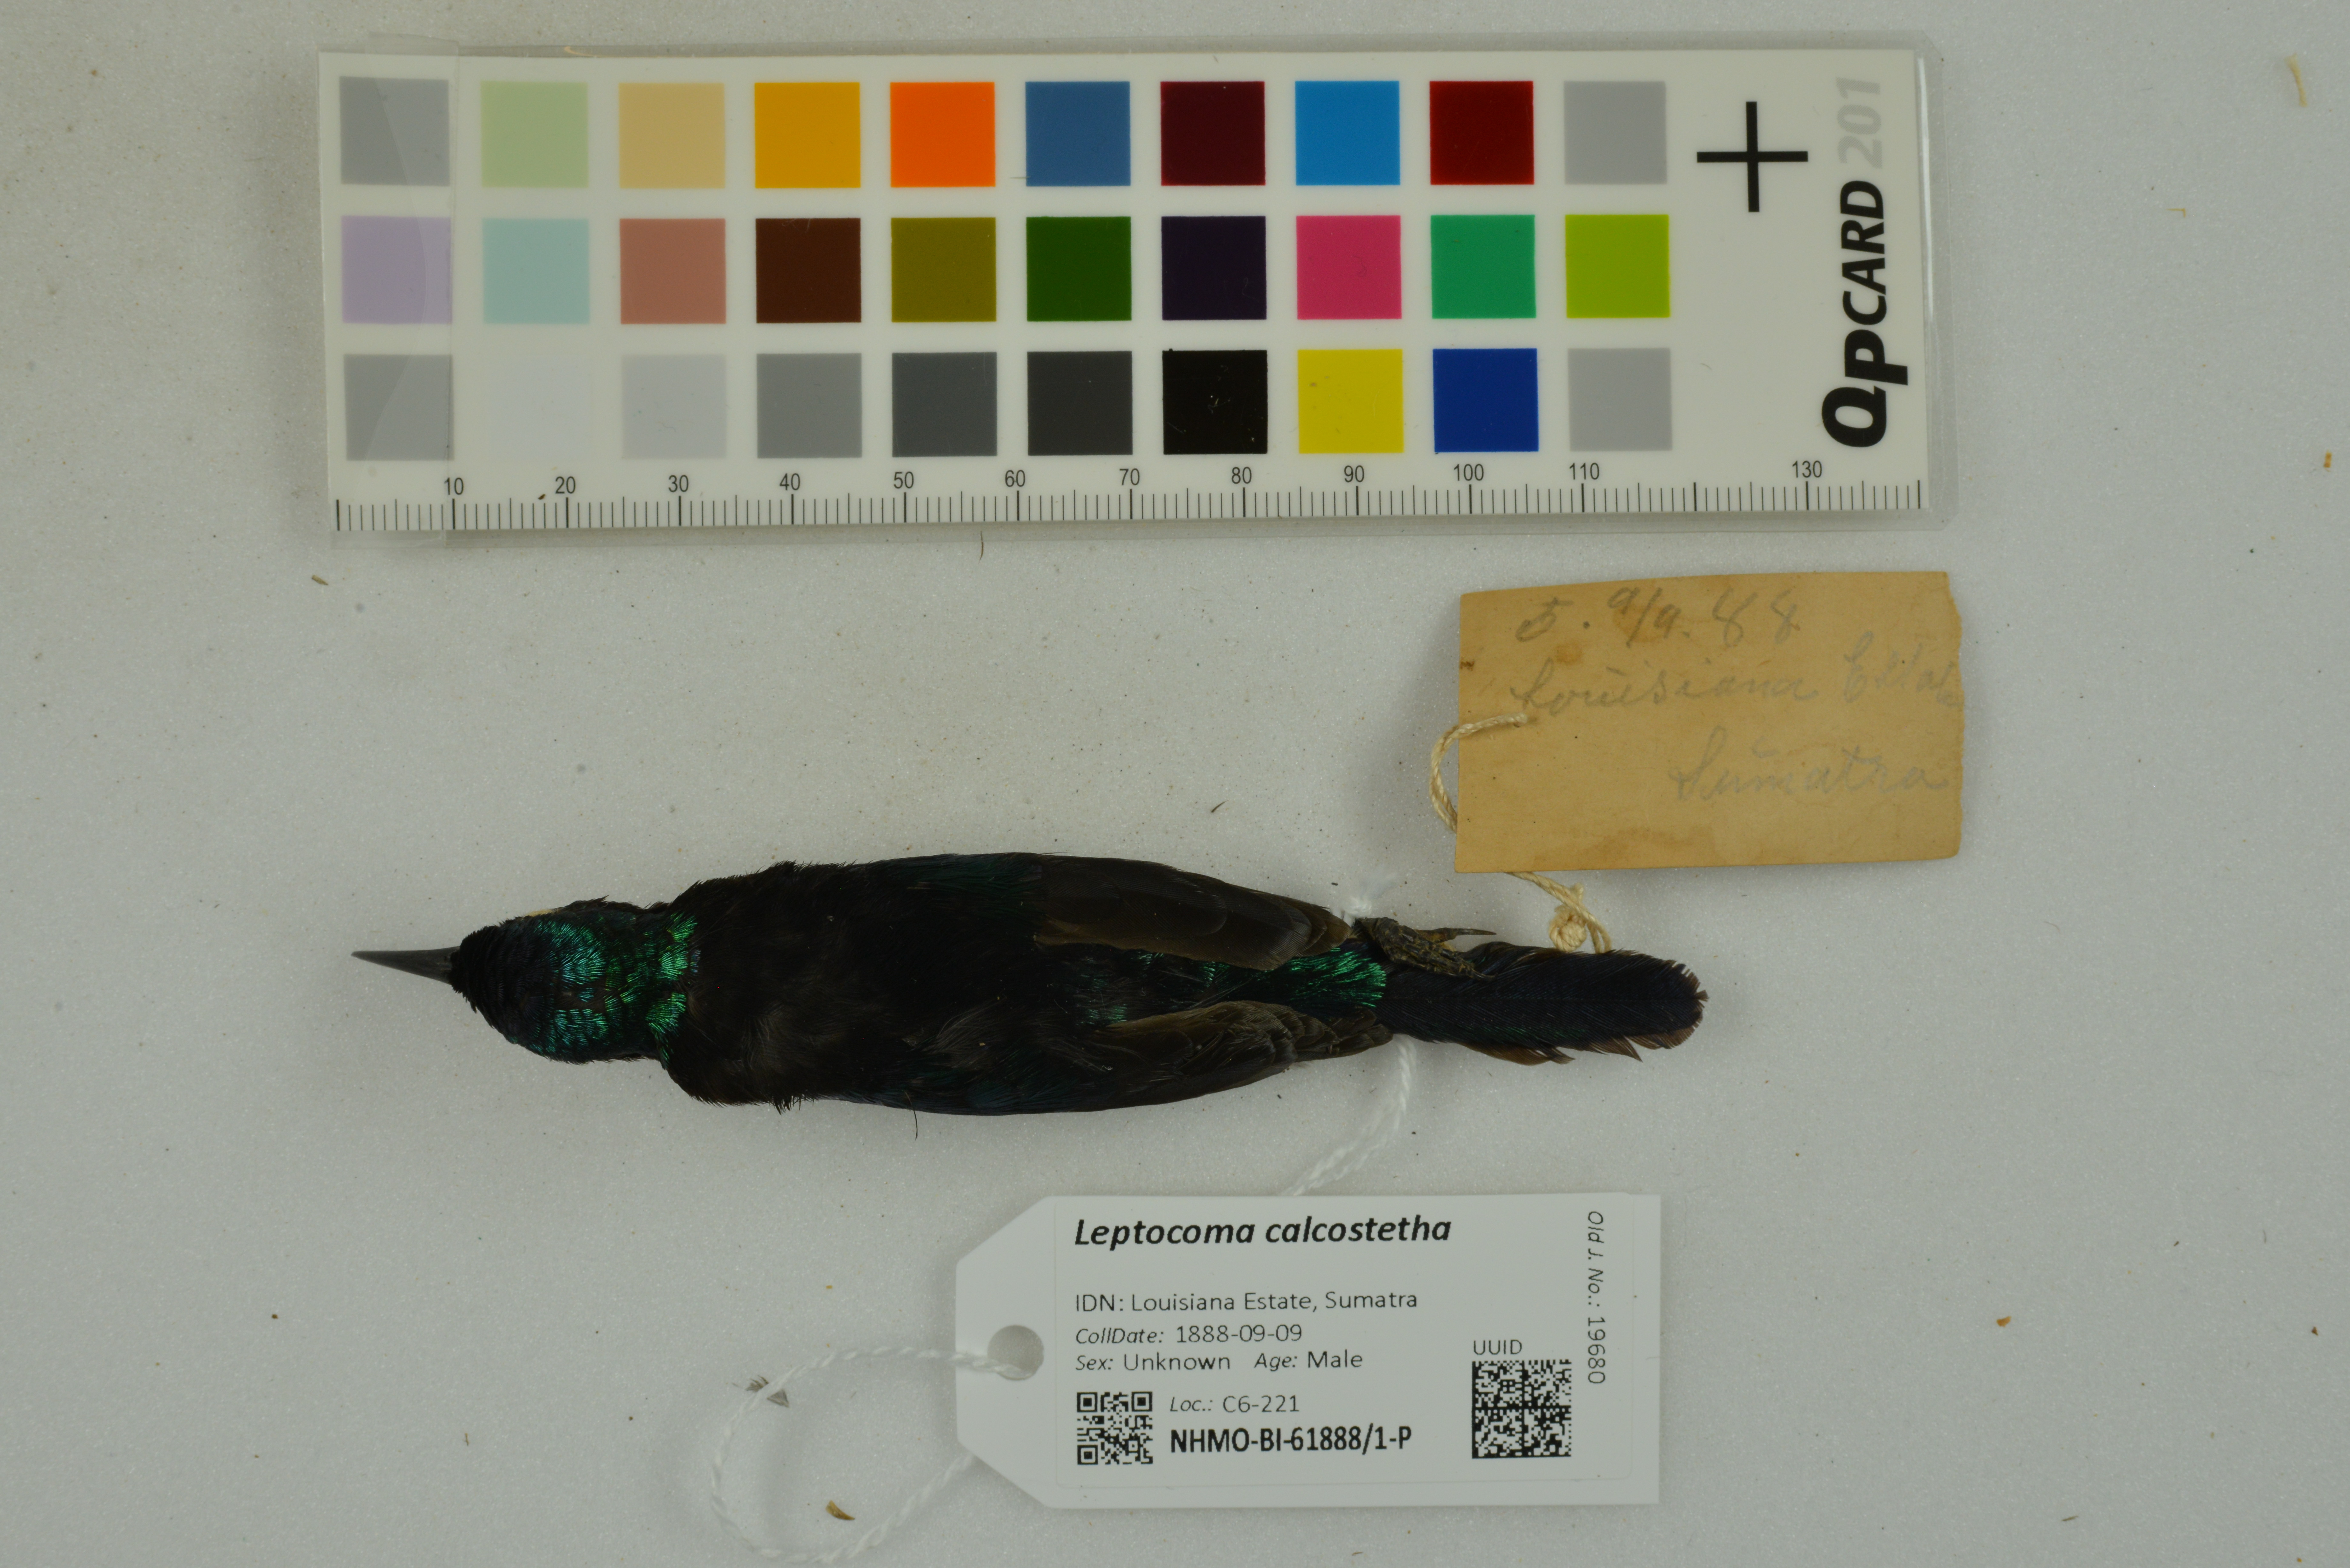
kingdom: Animalia
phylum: Chordata
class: Aves
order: Passeriformes
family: Nectariniidae
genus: Leptocoma
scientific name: Leptocoma calcostetha
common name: Copper-throated sunbird
